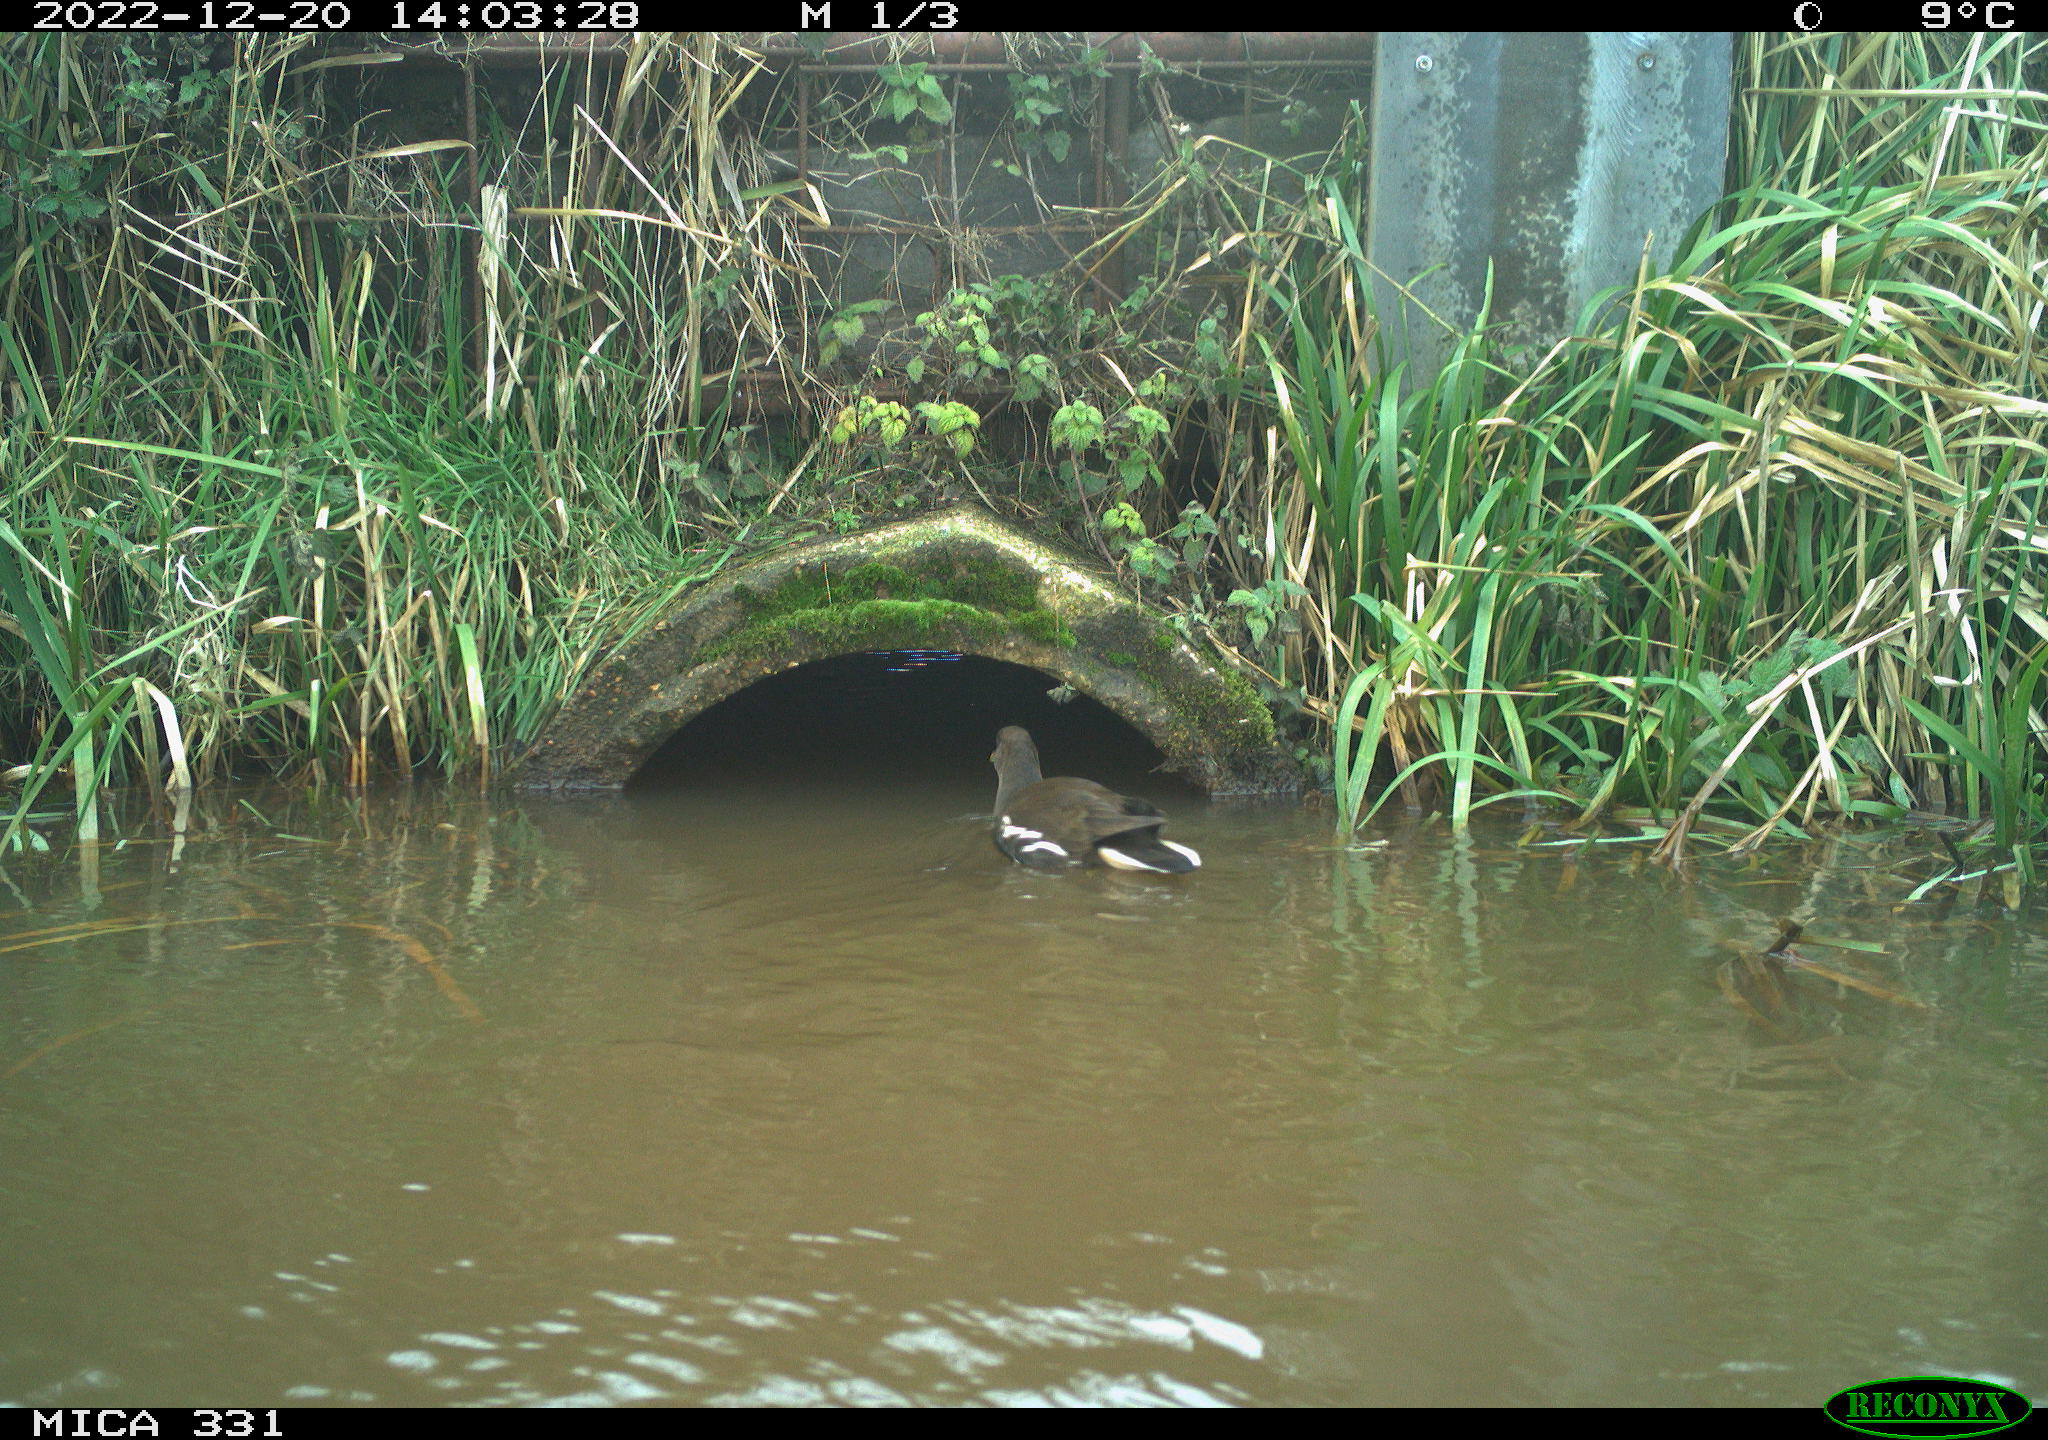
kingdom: Animalia
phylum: Chordata
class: Aves
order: Gruiformes
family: Rallidae
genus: Gallinula
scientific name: Gallinula chloropus
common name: Common moorhen
